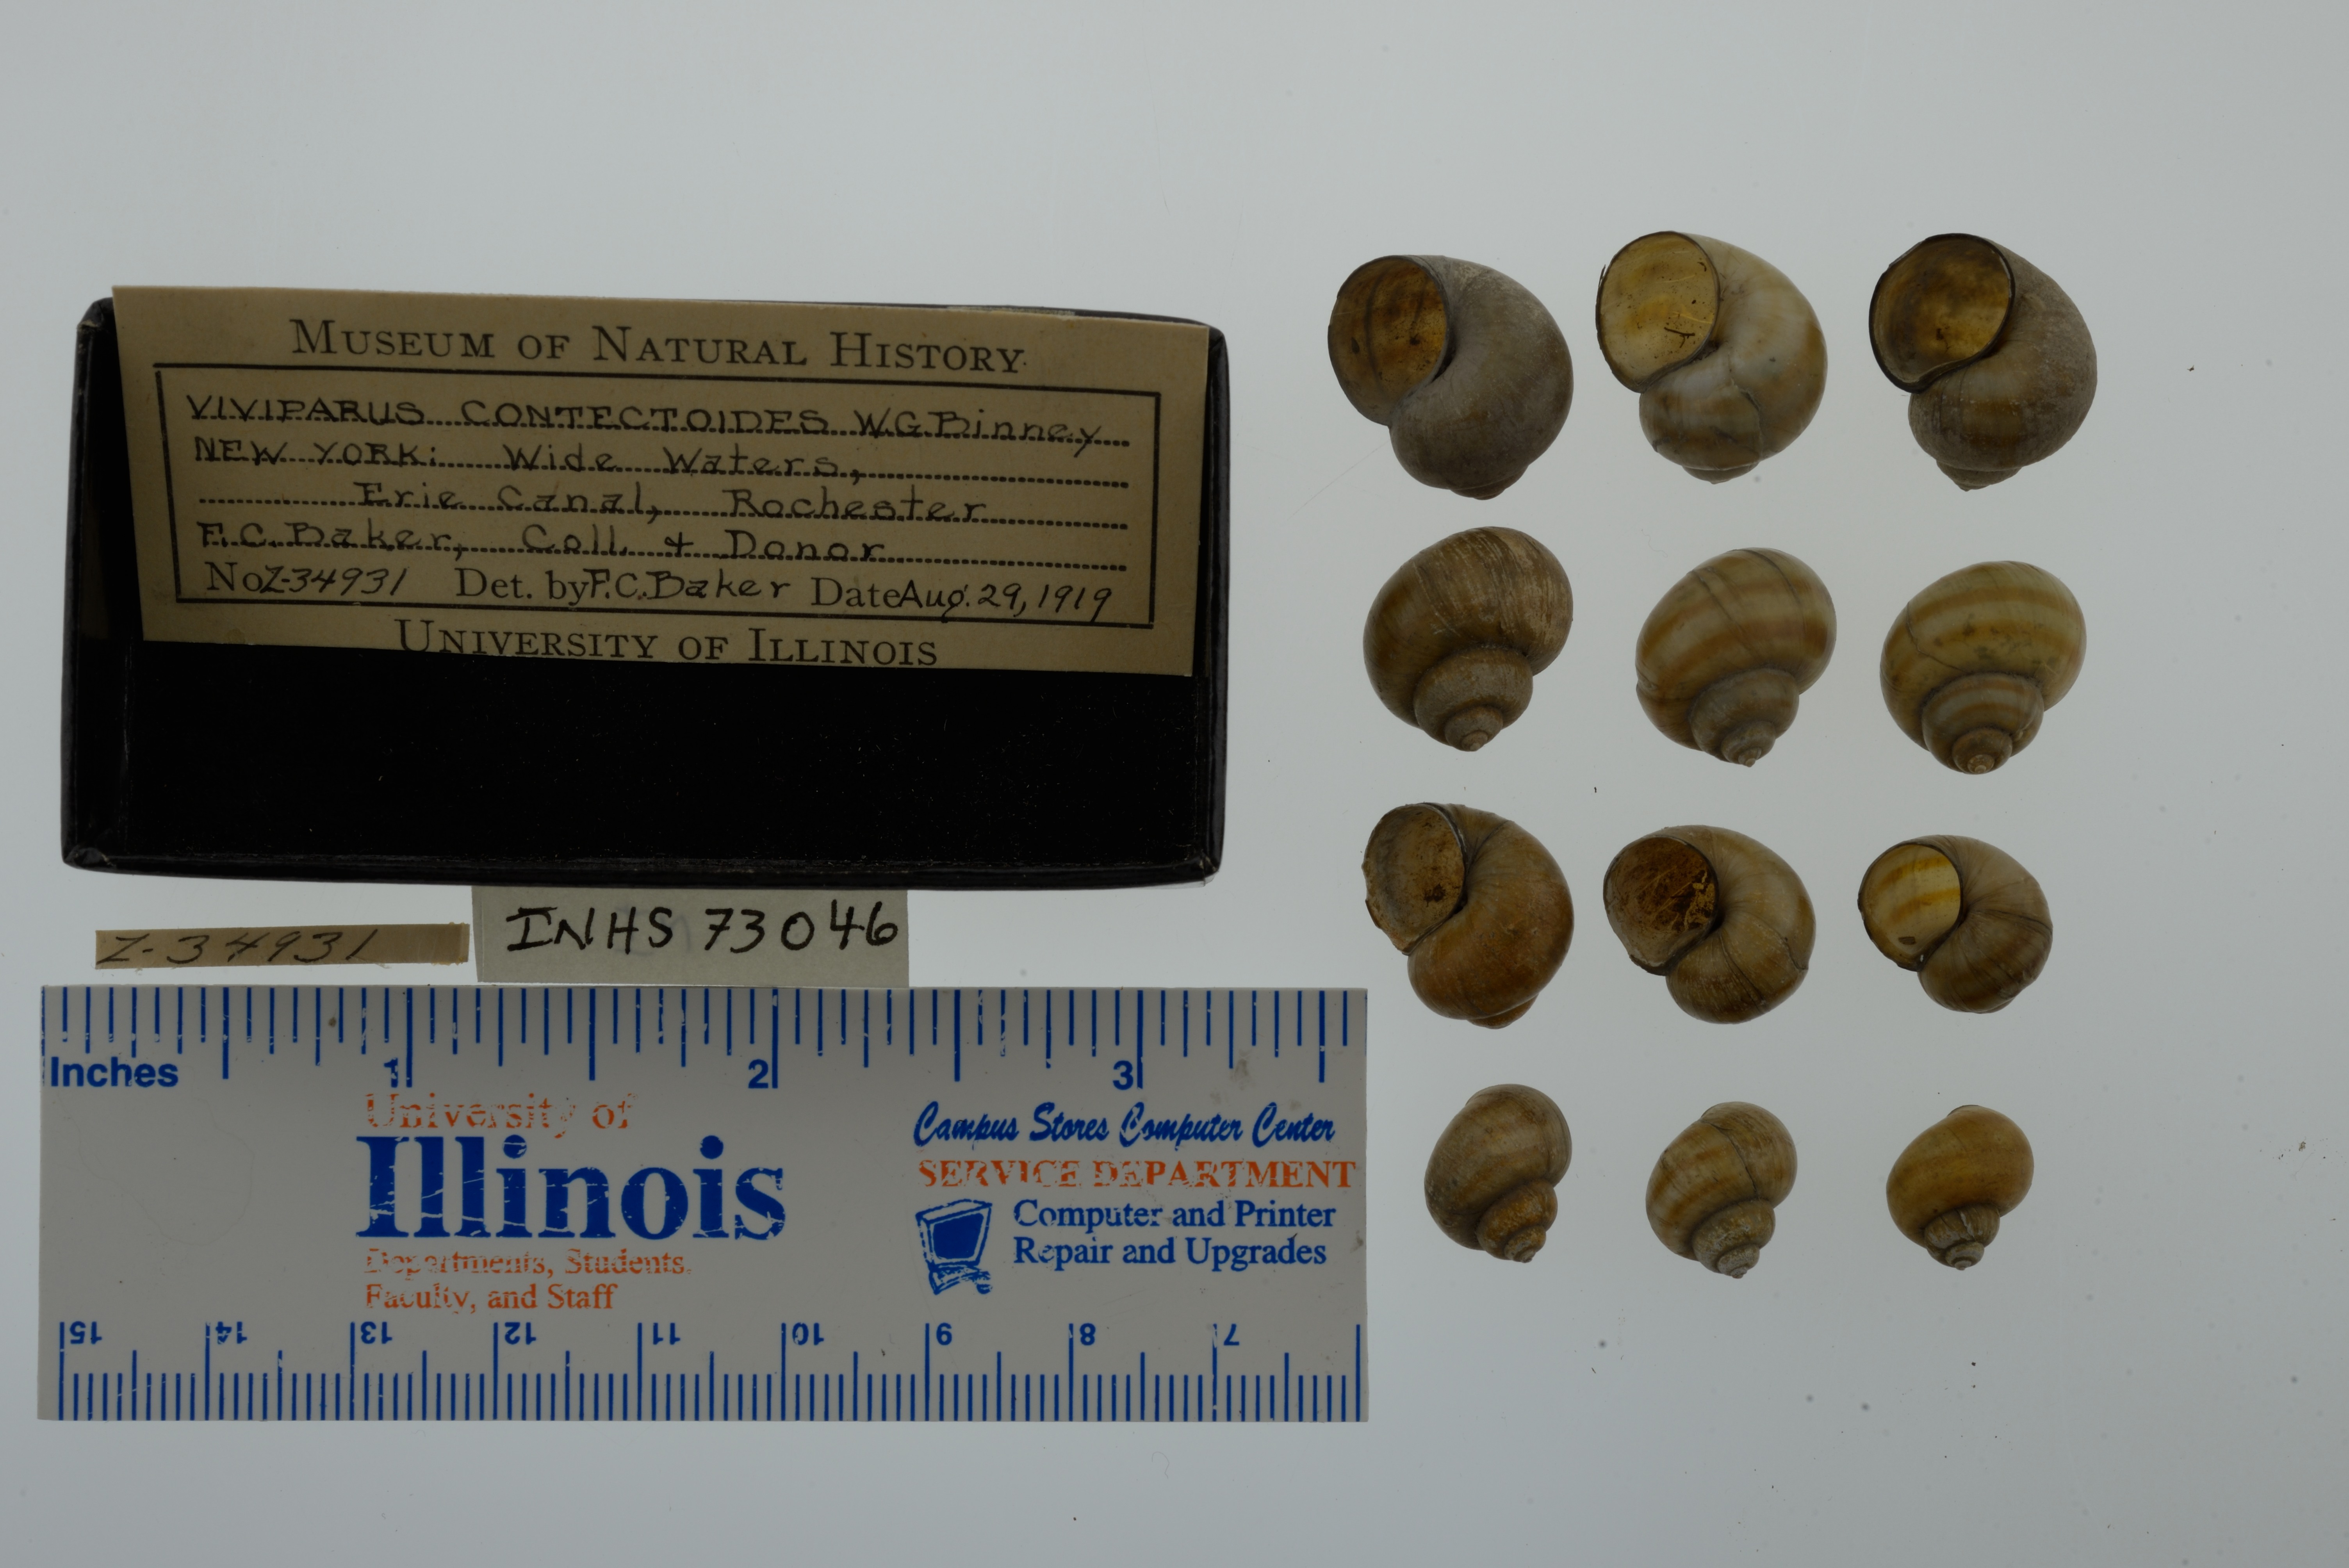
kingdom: Animalia
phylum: Mollusca
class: Gastropoda
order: Architaenioglossa
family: Viviparidae
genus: Callinina
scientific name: Callinina georgiana
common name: Banded mystery snail
